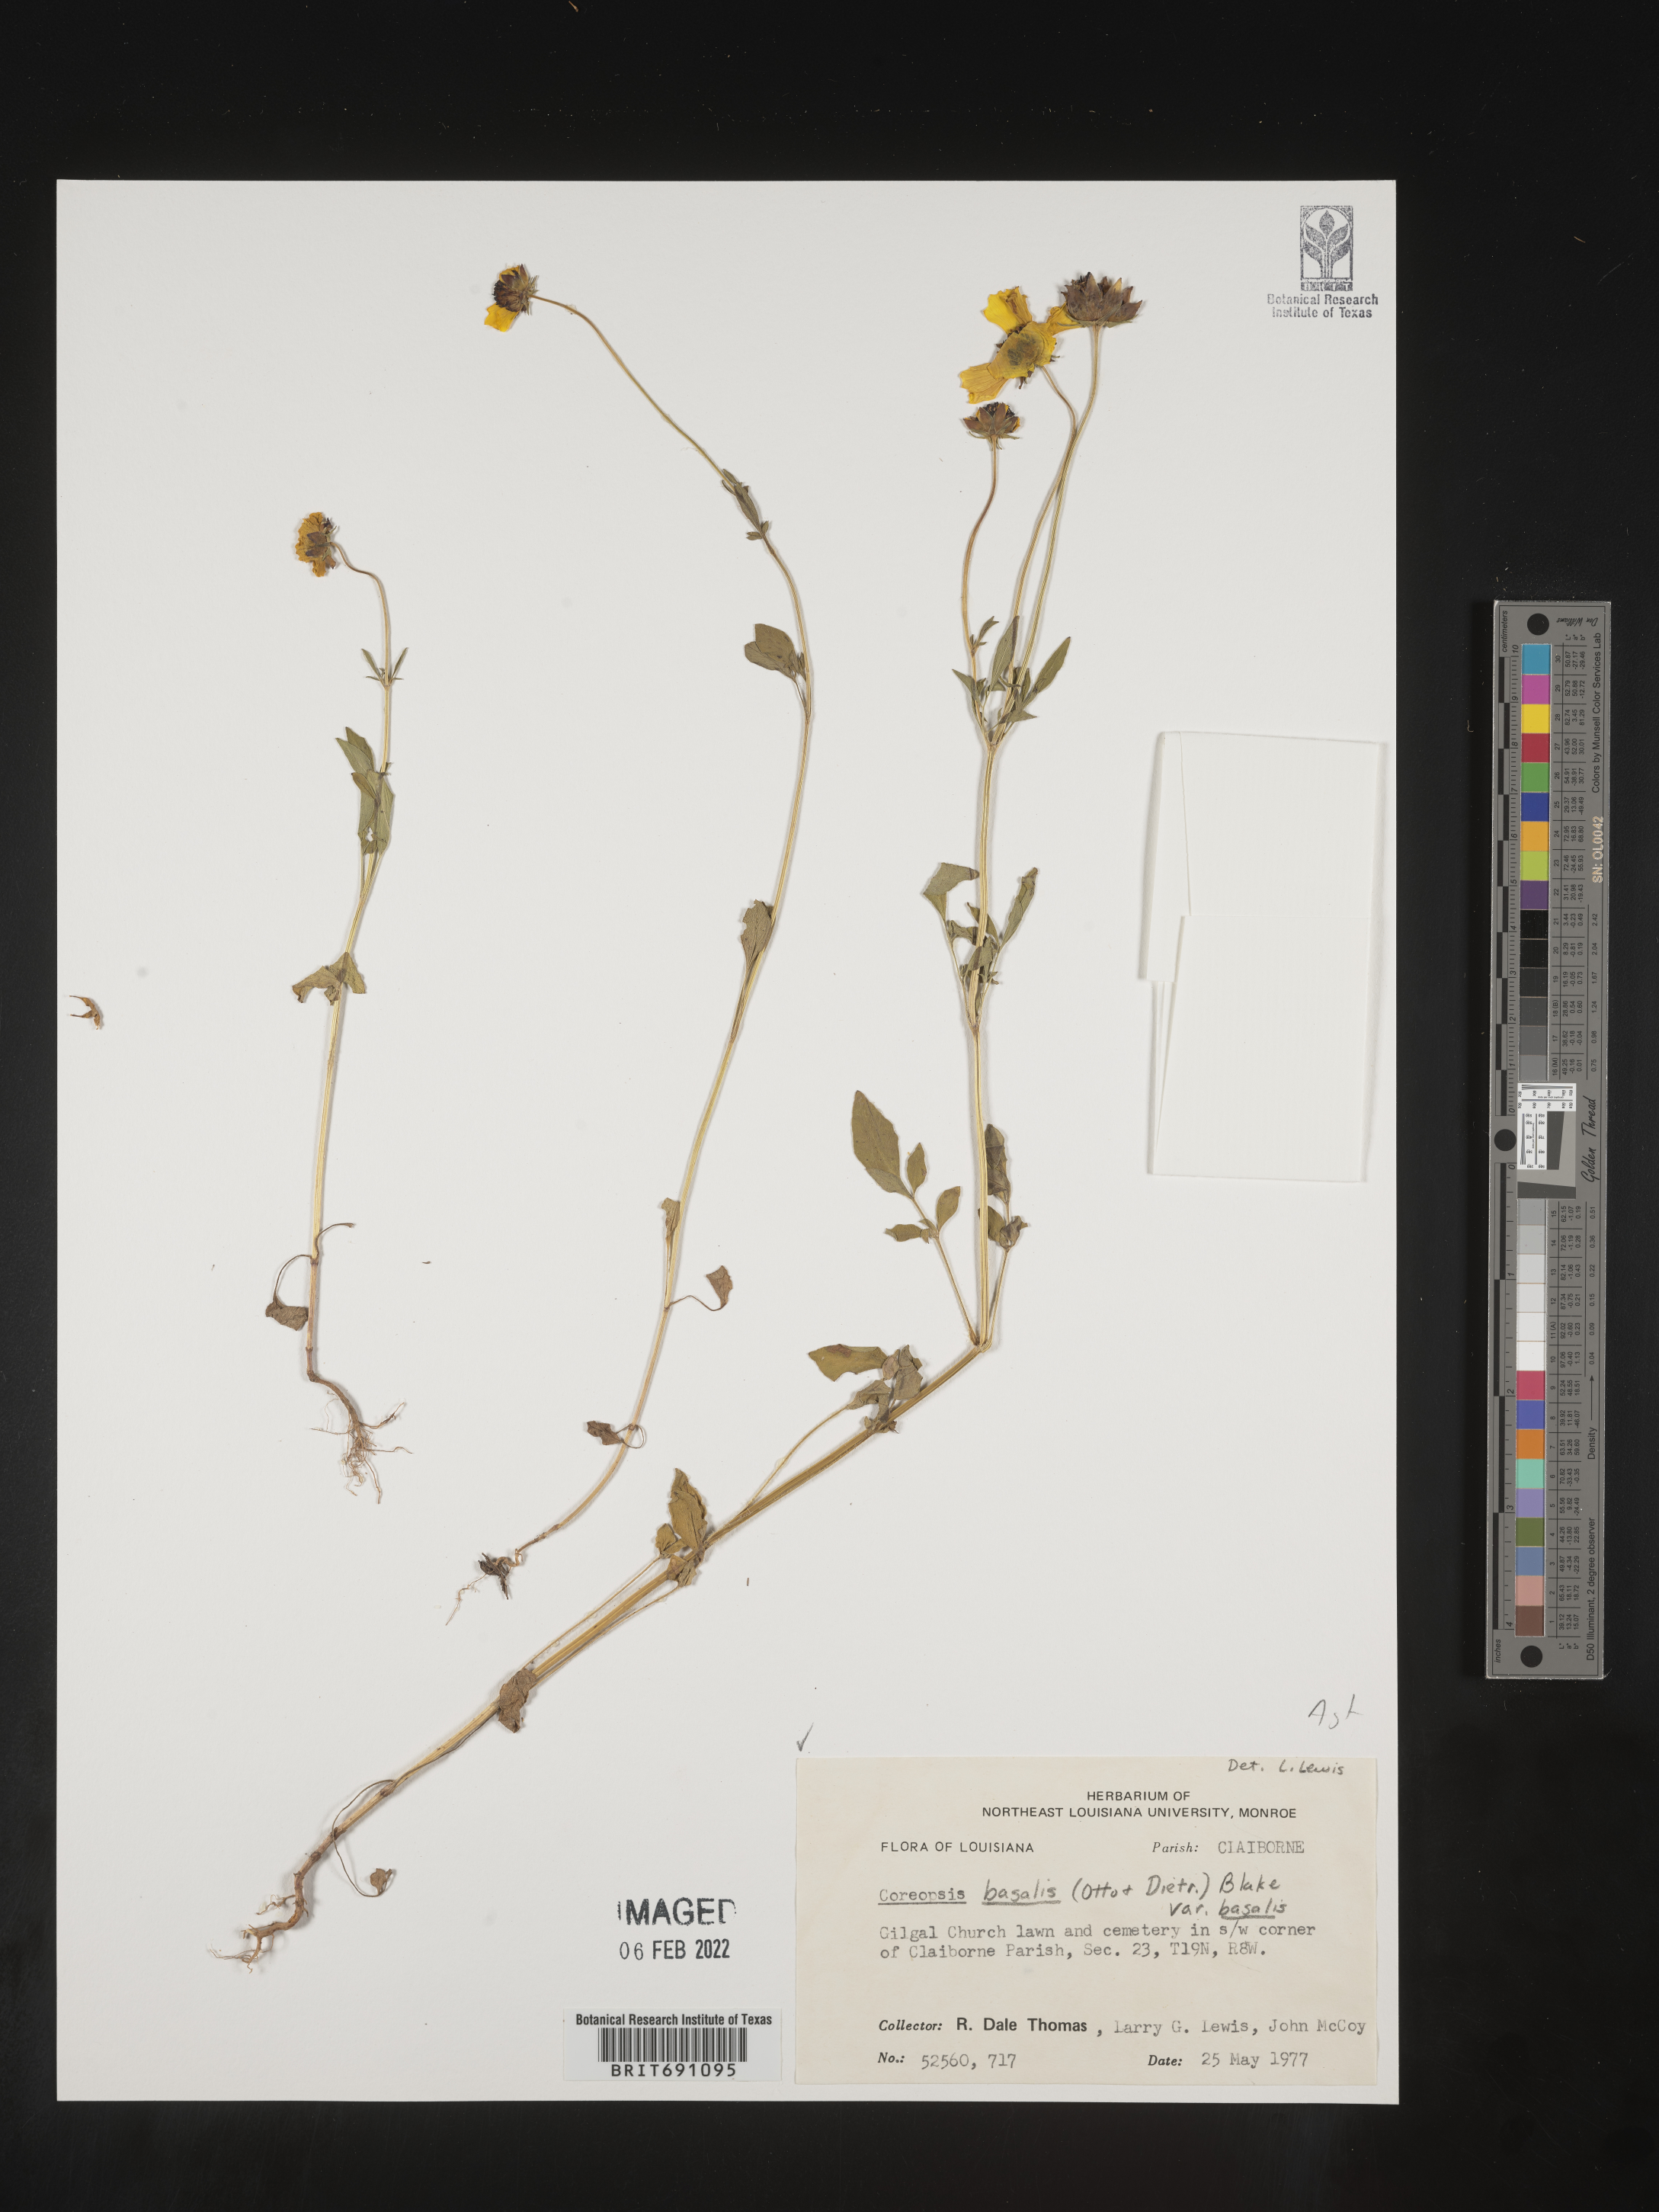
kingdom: Plantae
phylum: Tracheophyta
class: Magnoliopsida
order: Asterales
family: Asteraceae
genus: Coreopsis
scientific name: Coreopsis
